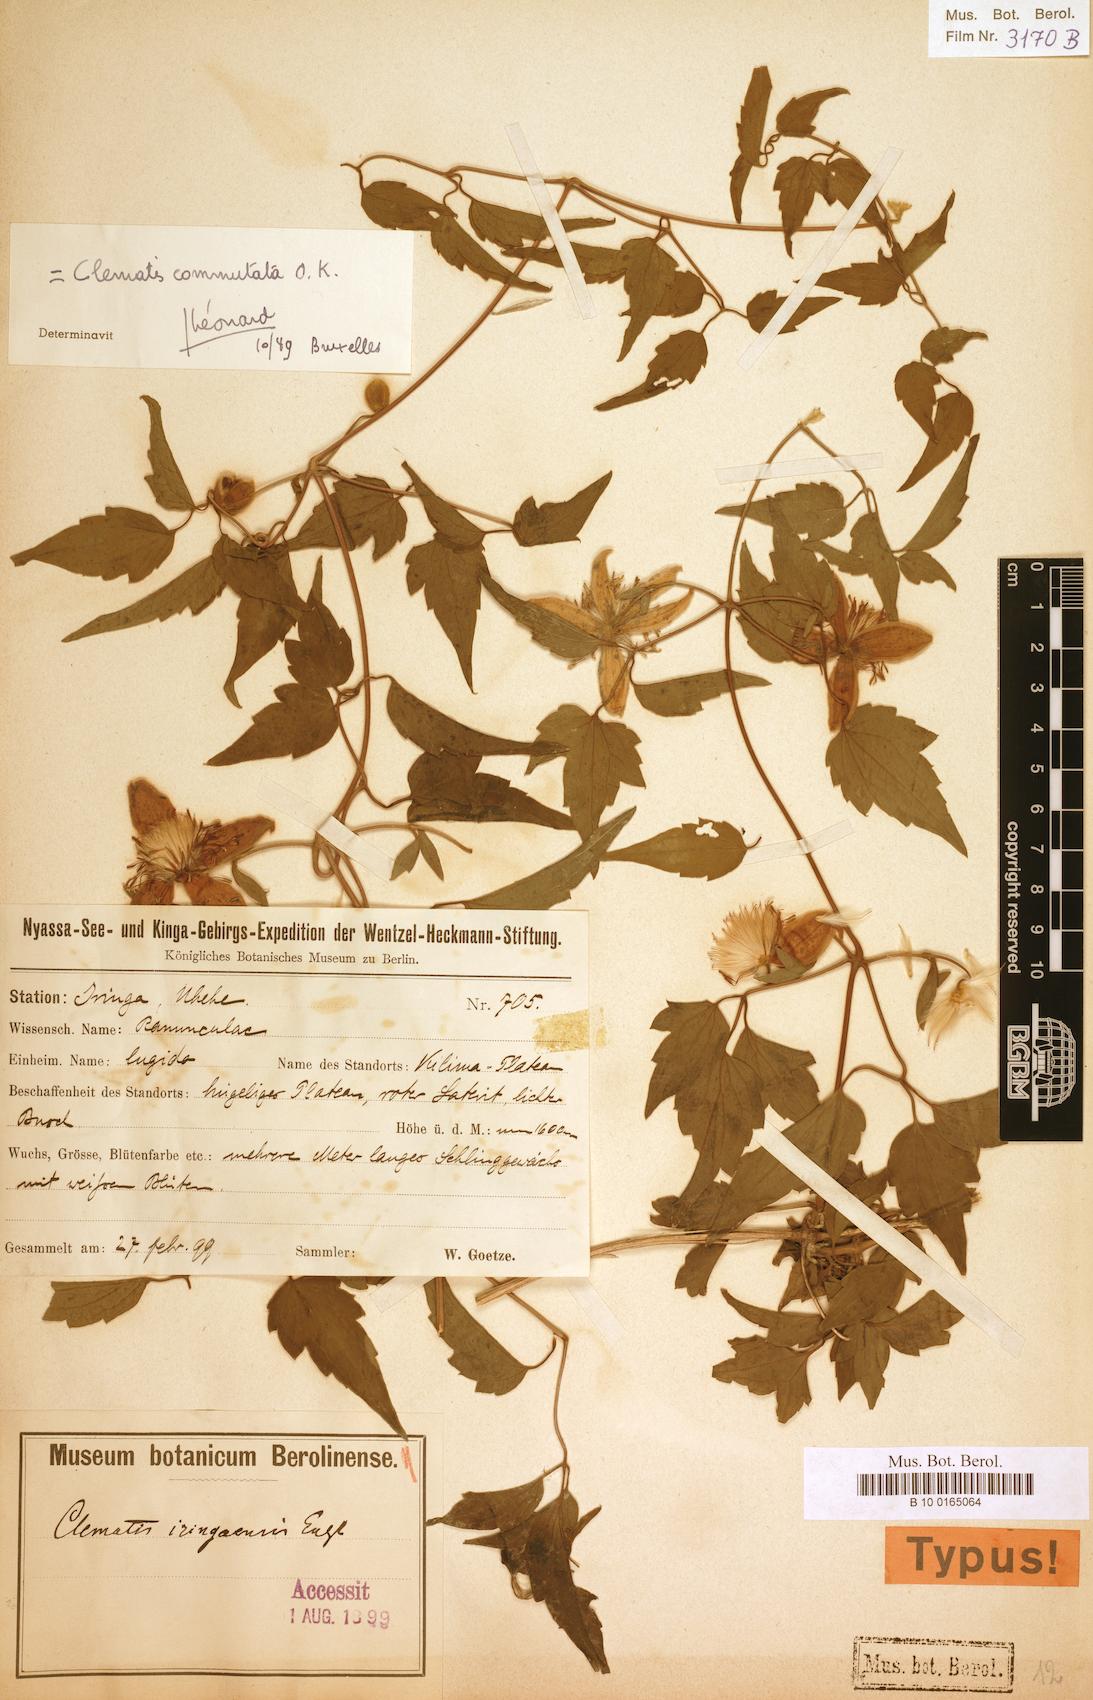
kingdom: Plantae
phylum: Tracheophyta
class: Magnoliopsida
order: Ranunculales
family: Ranunculaceae
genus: Clematis
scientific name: Clematis commutata
